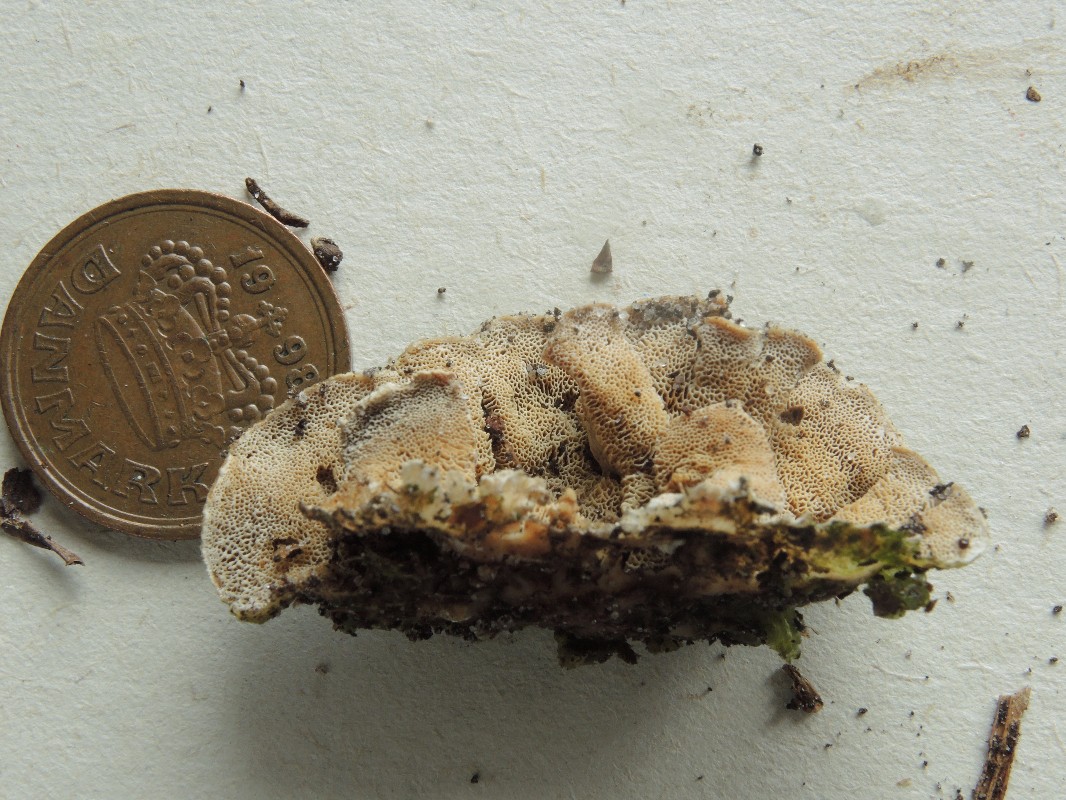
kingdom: Fungi
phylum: Basidiomycota
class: Agaricomycetes
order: Polyporales
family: Incrustoporiaceae
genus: Skeletocutis
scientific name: Skeletocutis carneogrisea
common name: rødgrå krystalporesvamp
